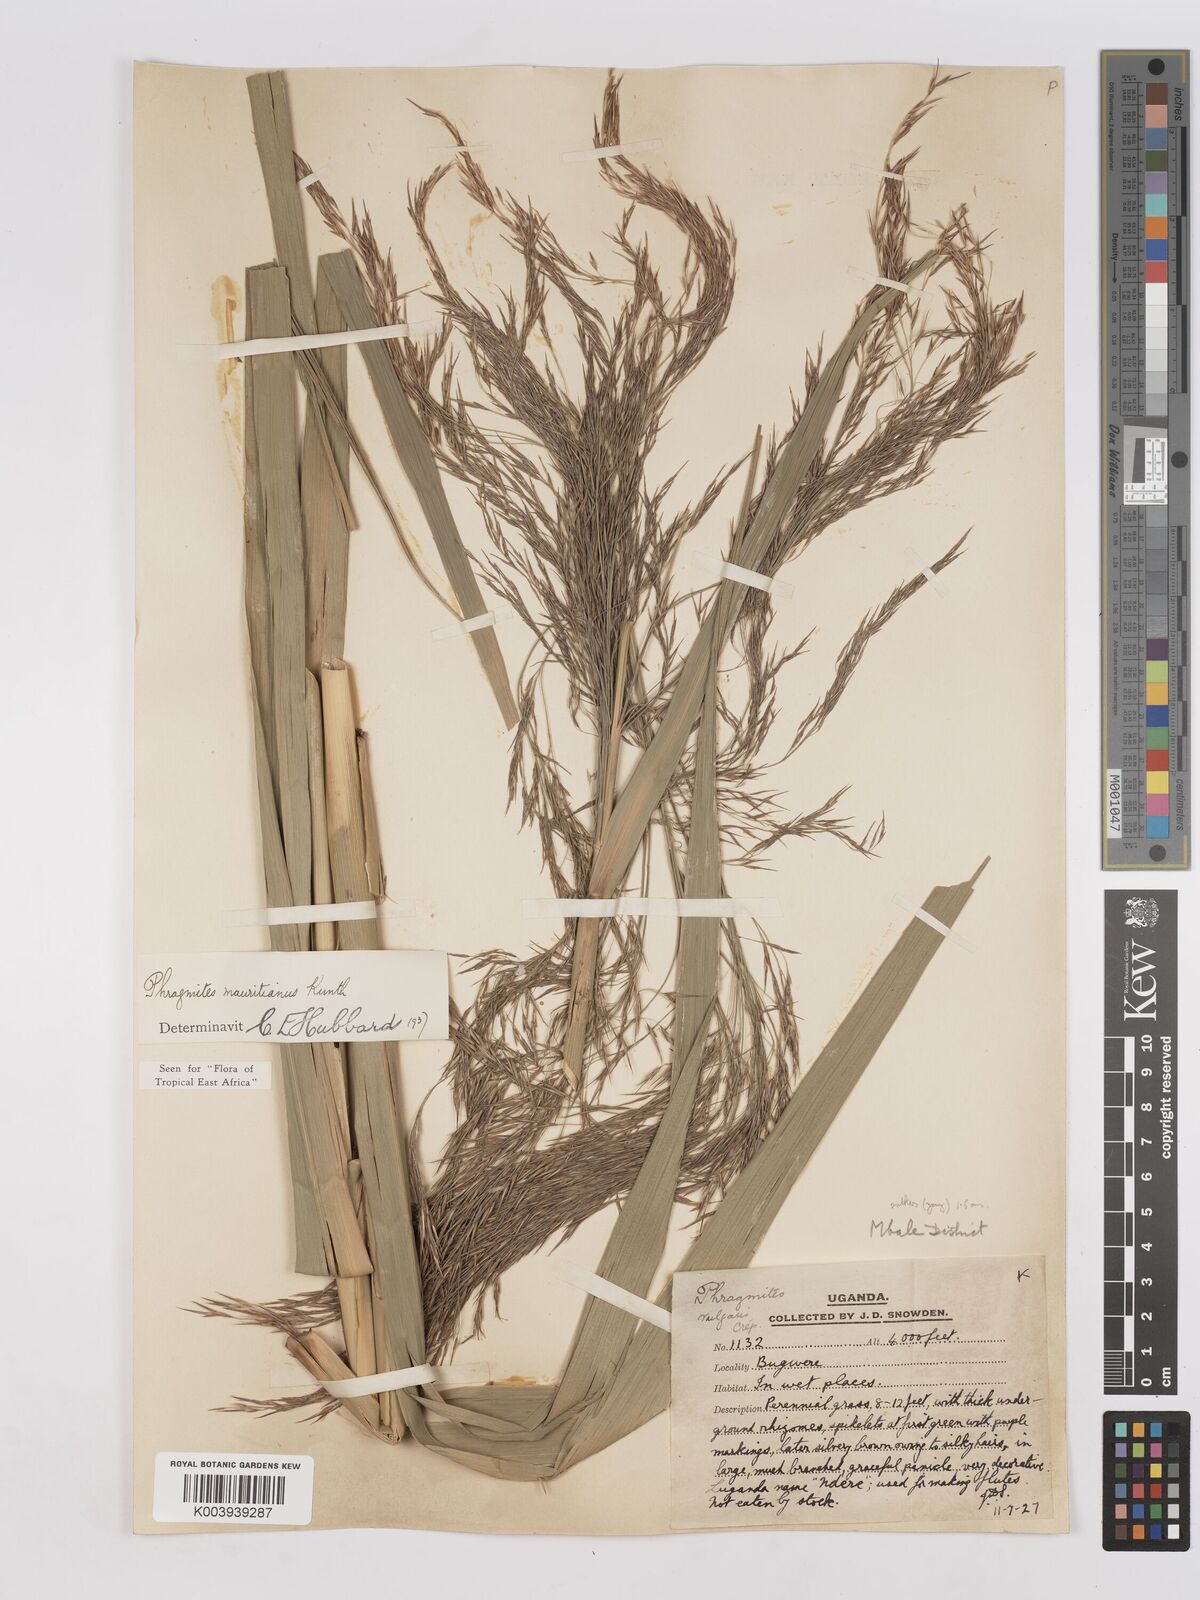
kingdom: Plantae
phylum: Tracheophyta
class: Liliopsida
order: Poales
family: Poaceae
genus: Phragmites
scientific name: Phragmites mauritianus
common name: Reed grass
